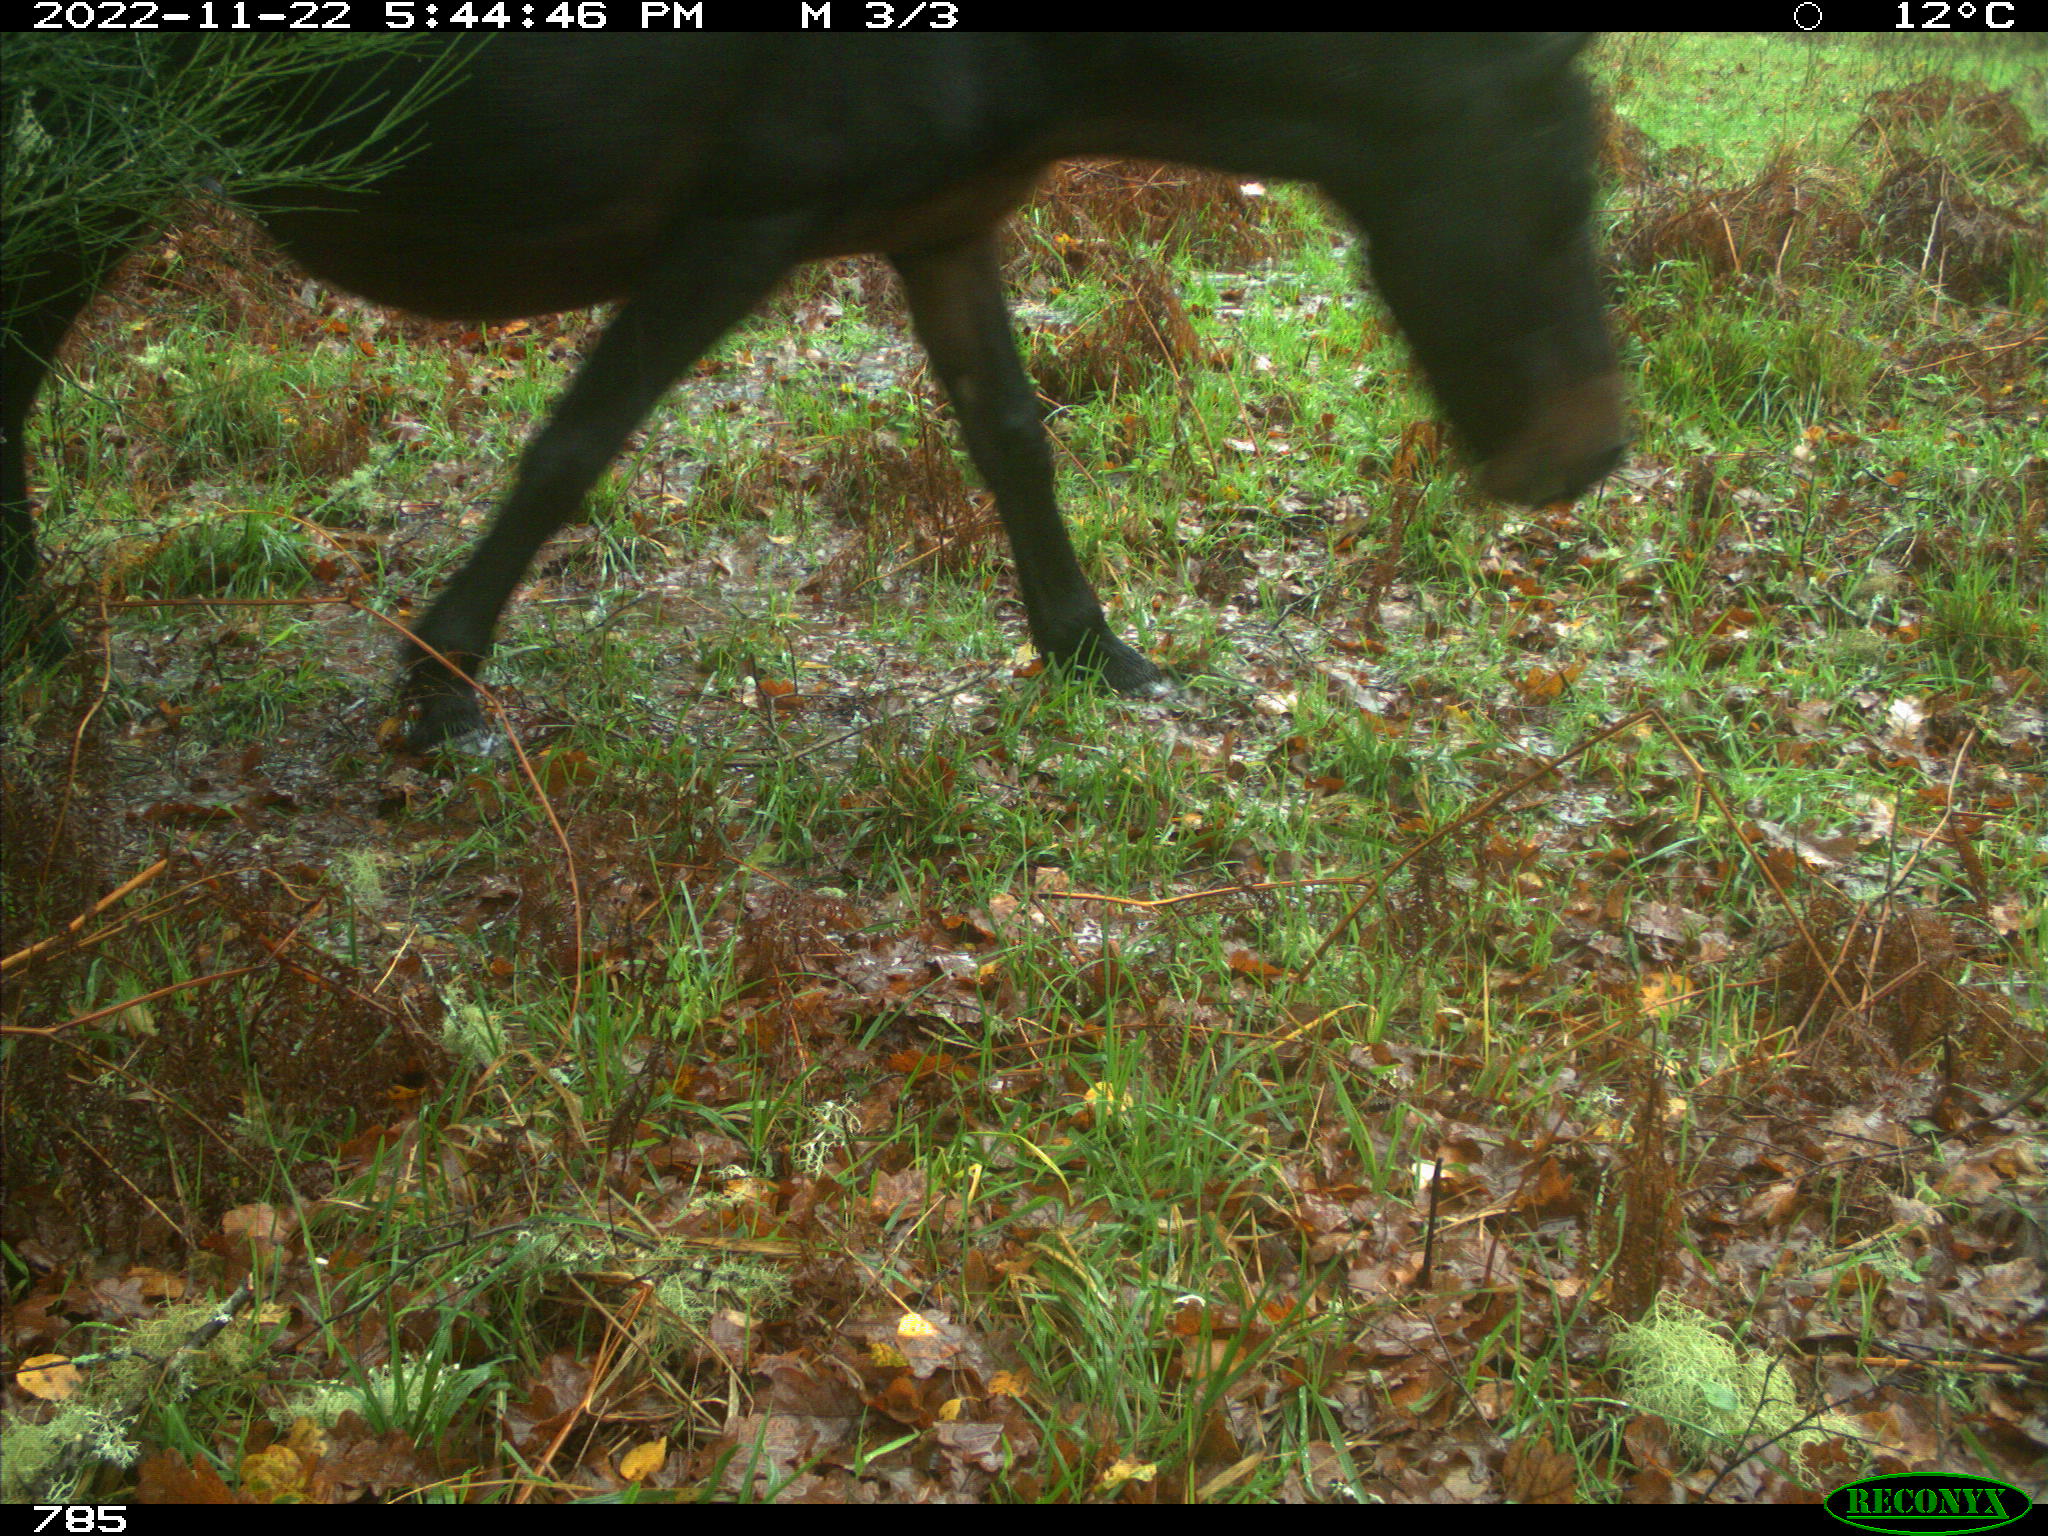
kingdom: Animalia
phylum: Chordata
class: Mammalia
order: Perissodactyla
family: Equidae
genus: Equus
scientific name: Equus caballus
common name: Horse
